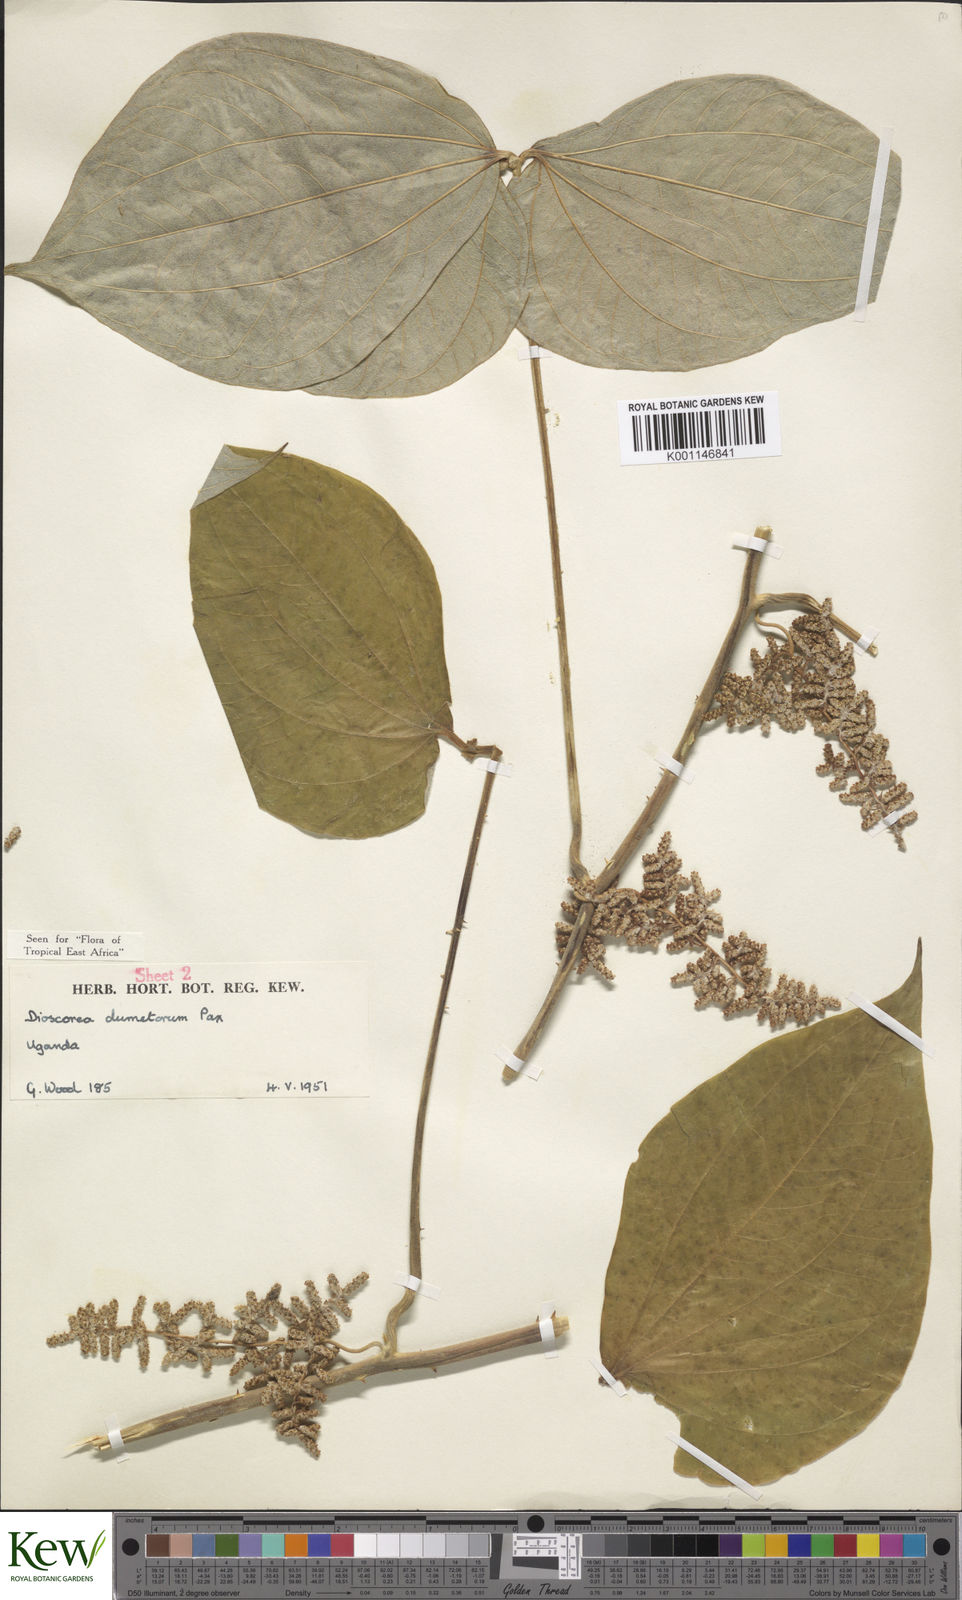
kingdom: Plantae
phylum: Tracheophyta
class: Liliopsida
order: Dioscoreales
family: Dioscoreaceae
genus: Dioscorea
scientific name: Dioscorea dumetorum
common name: African bitter yam
